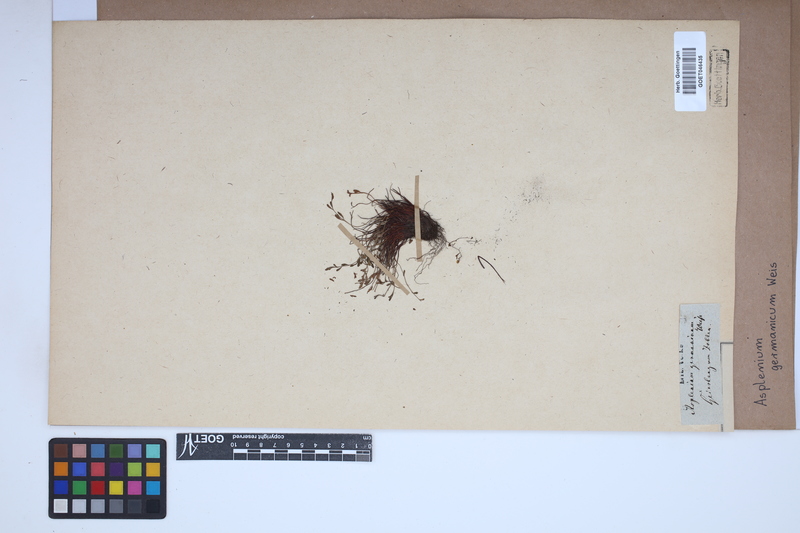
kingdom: Plantae
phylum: Tracheophyta
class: Polypodiopsida
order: Polypodiales
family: Aspleniaceae
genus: Asplenium
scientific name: Asplenium
